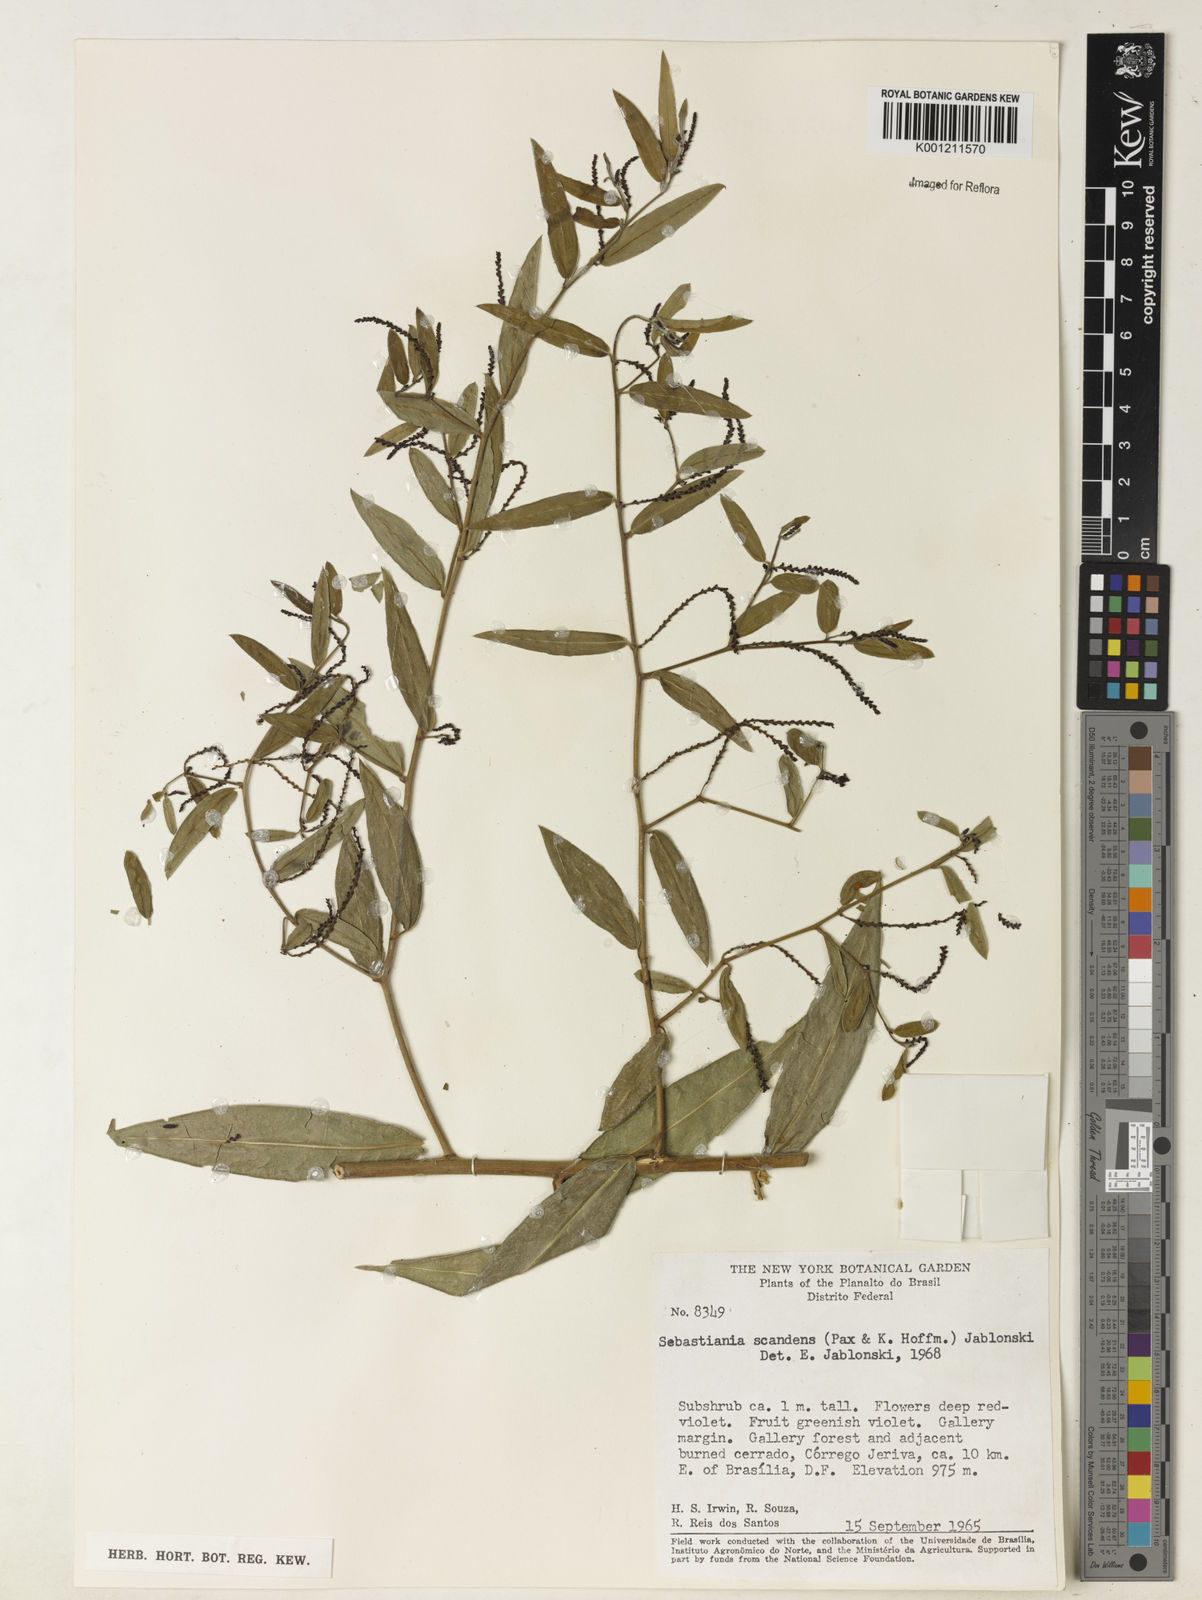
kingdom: Plantae
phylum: Tracheophyta
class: Magnoliopsida
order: Malpighiales
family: Euphorbiaceae
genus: Microstachys
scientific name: Microstachys hispida
